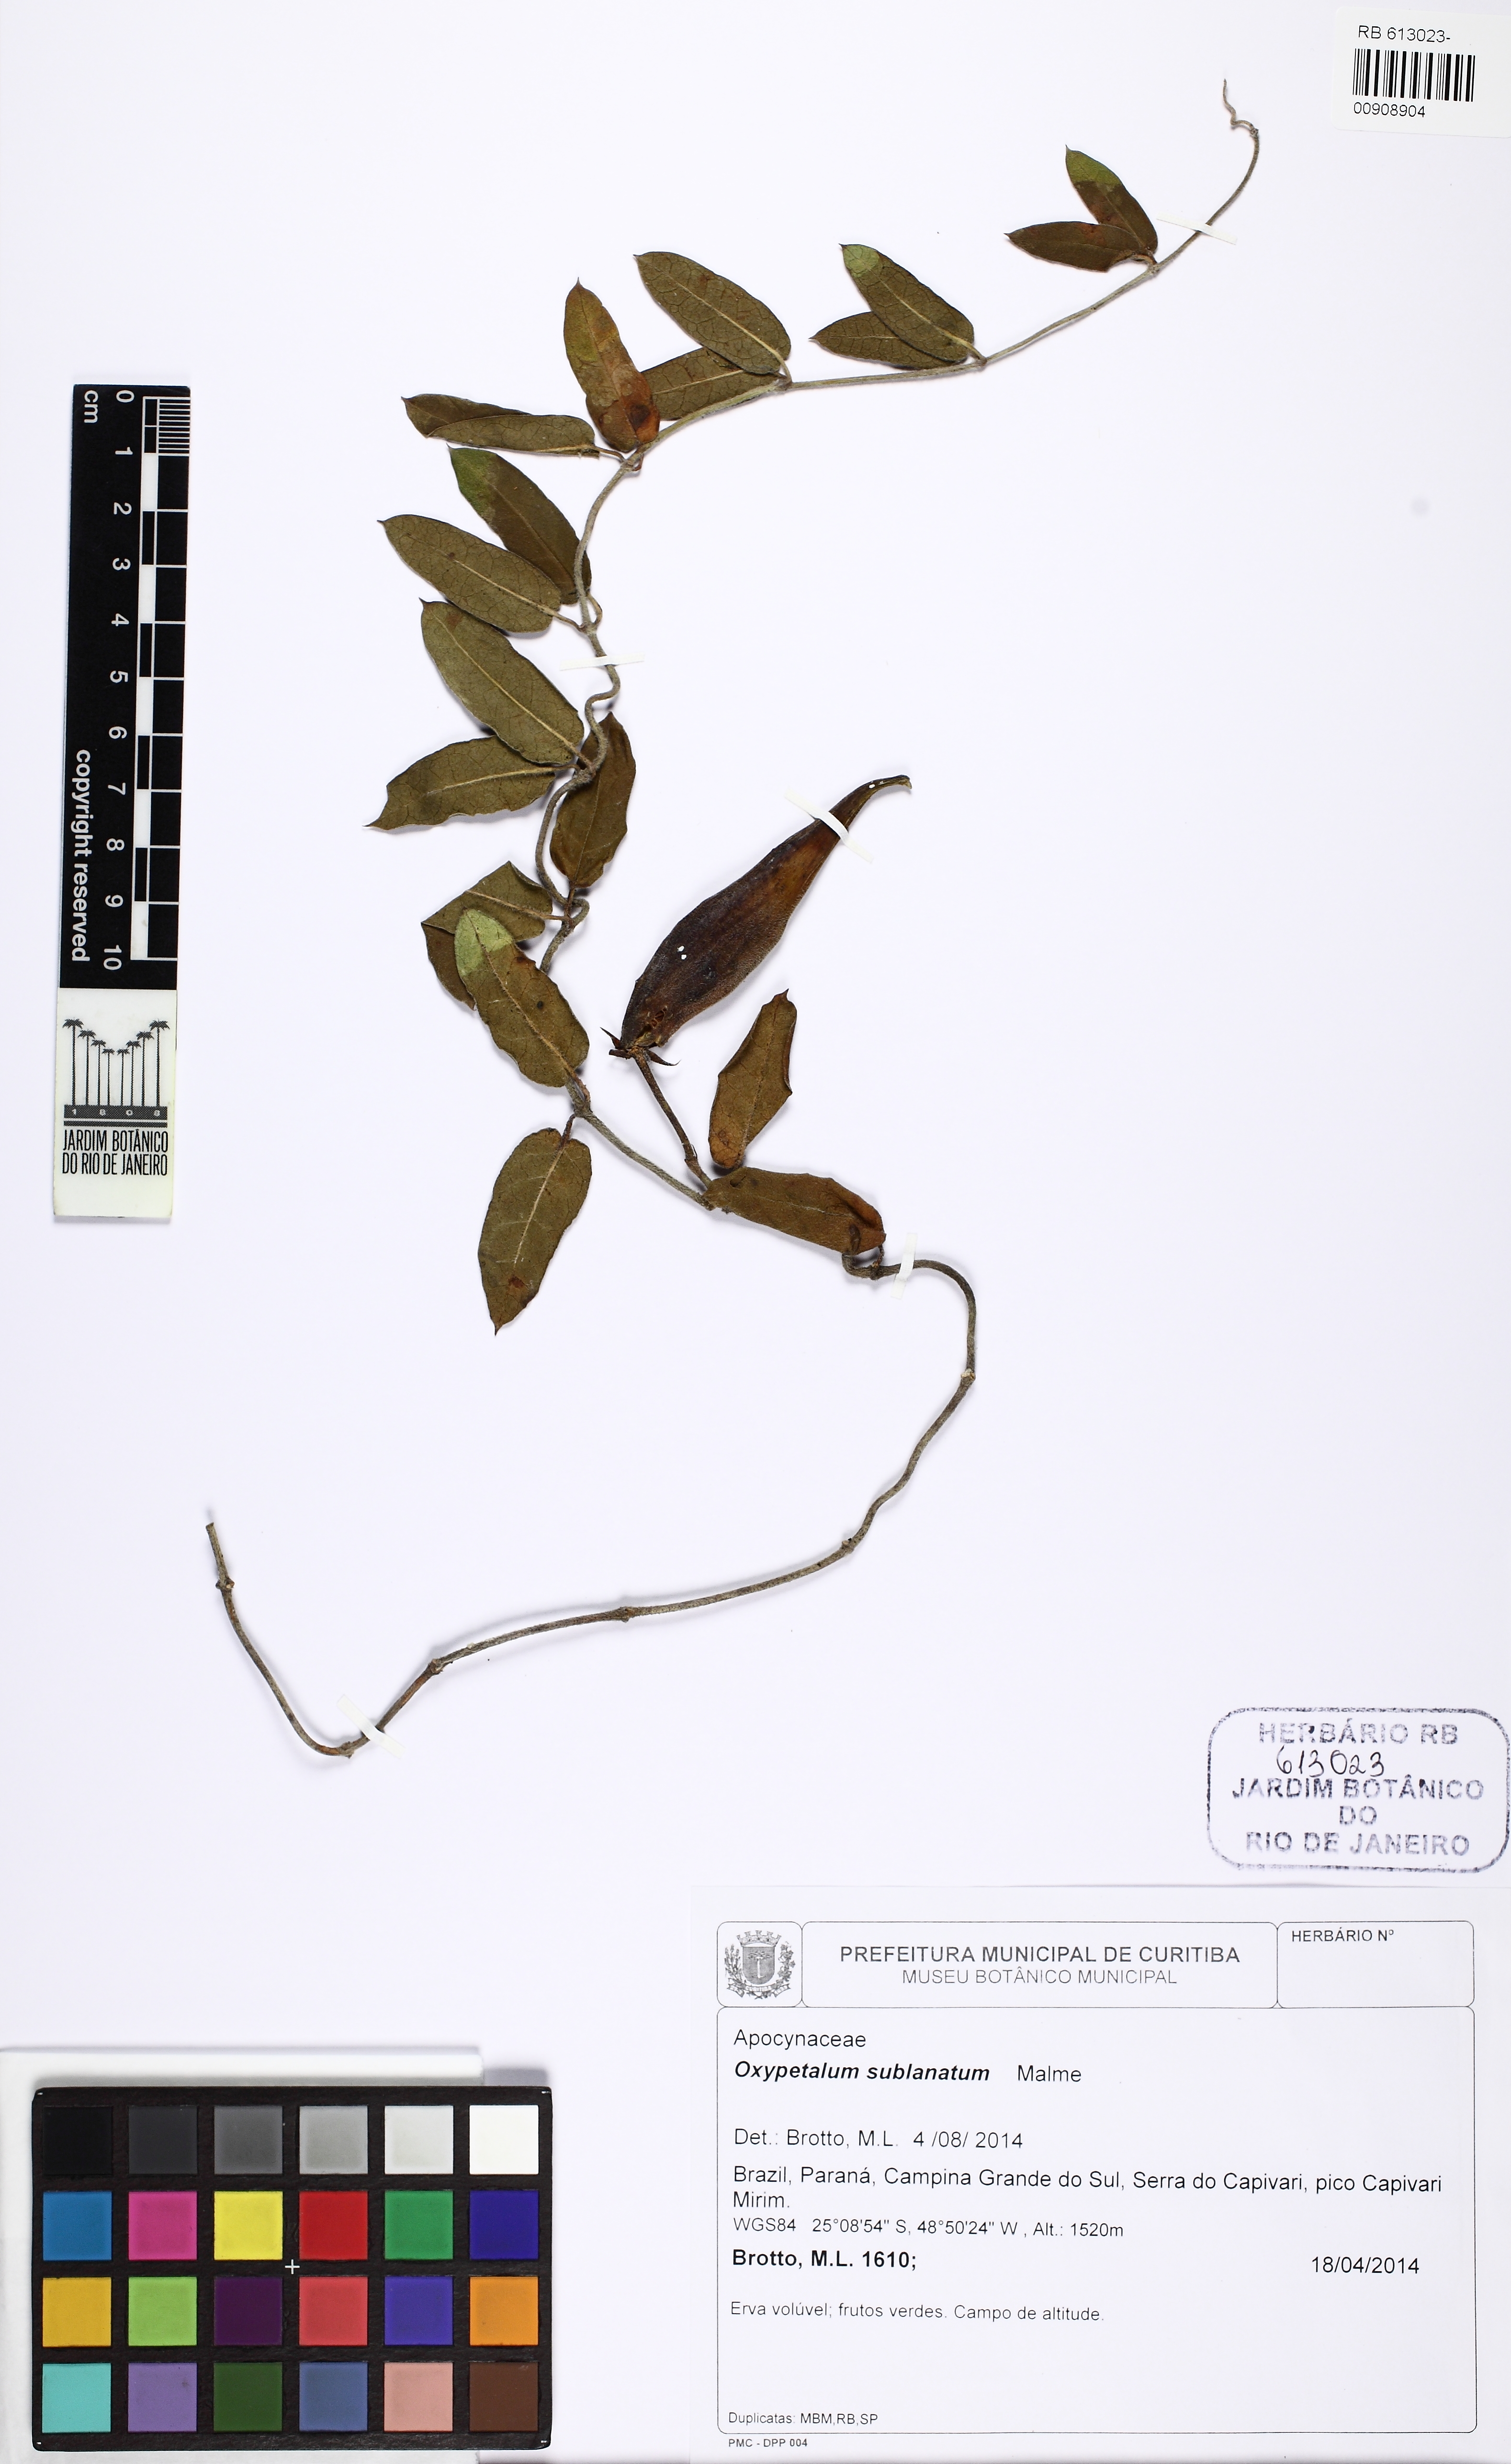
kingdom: Plantae
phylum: Tracheophyta
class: Magnoliopsida
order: Gentianales
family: Apocynaceae
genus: Oxypetalum
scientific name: Oxypetalum sublanatum
